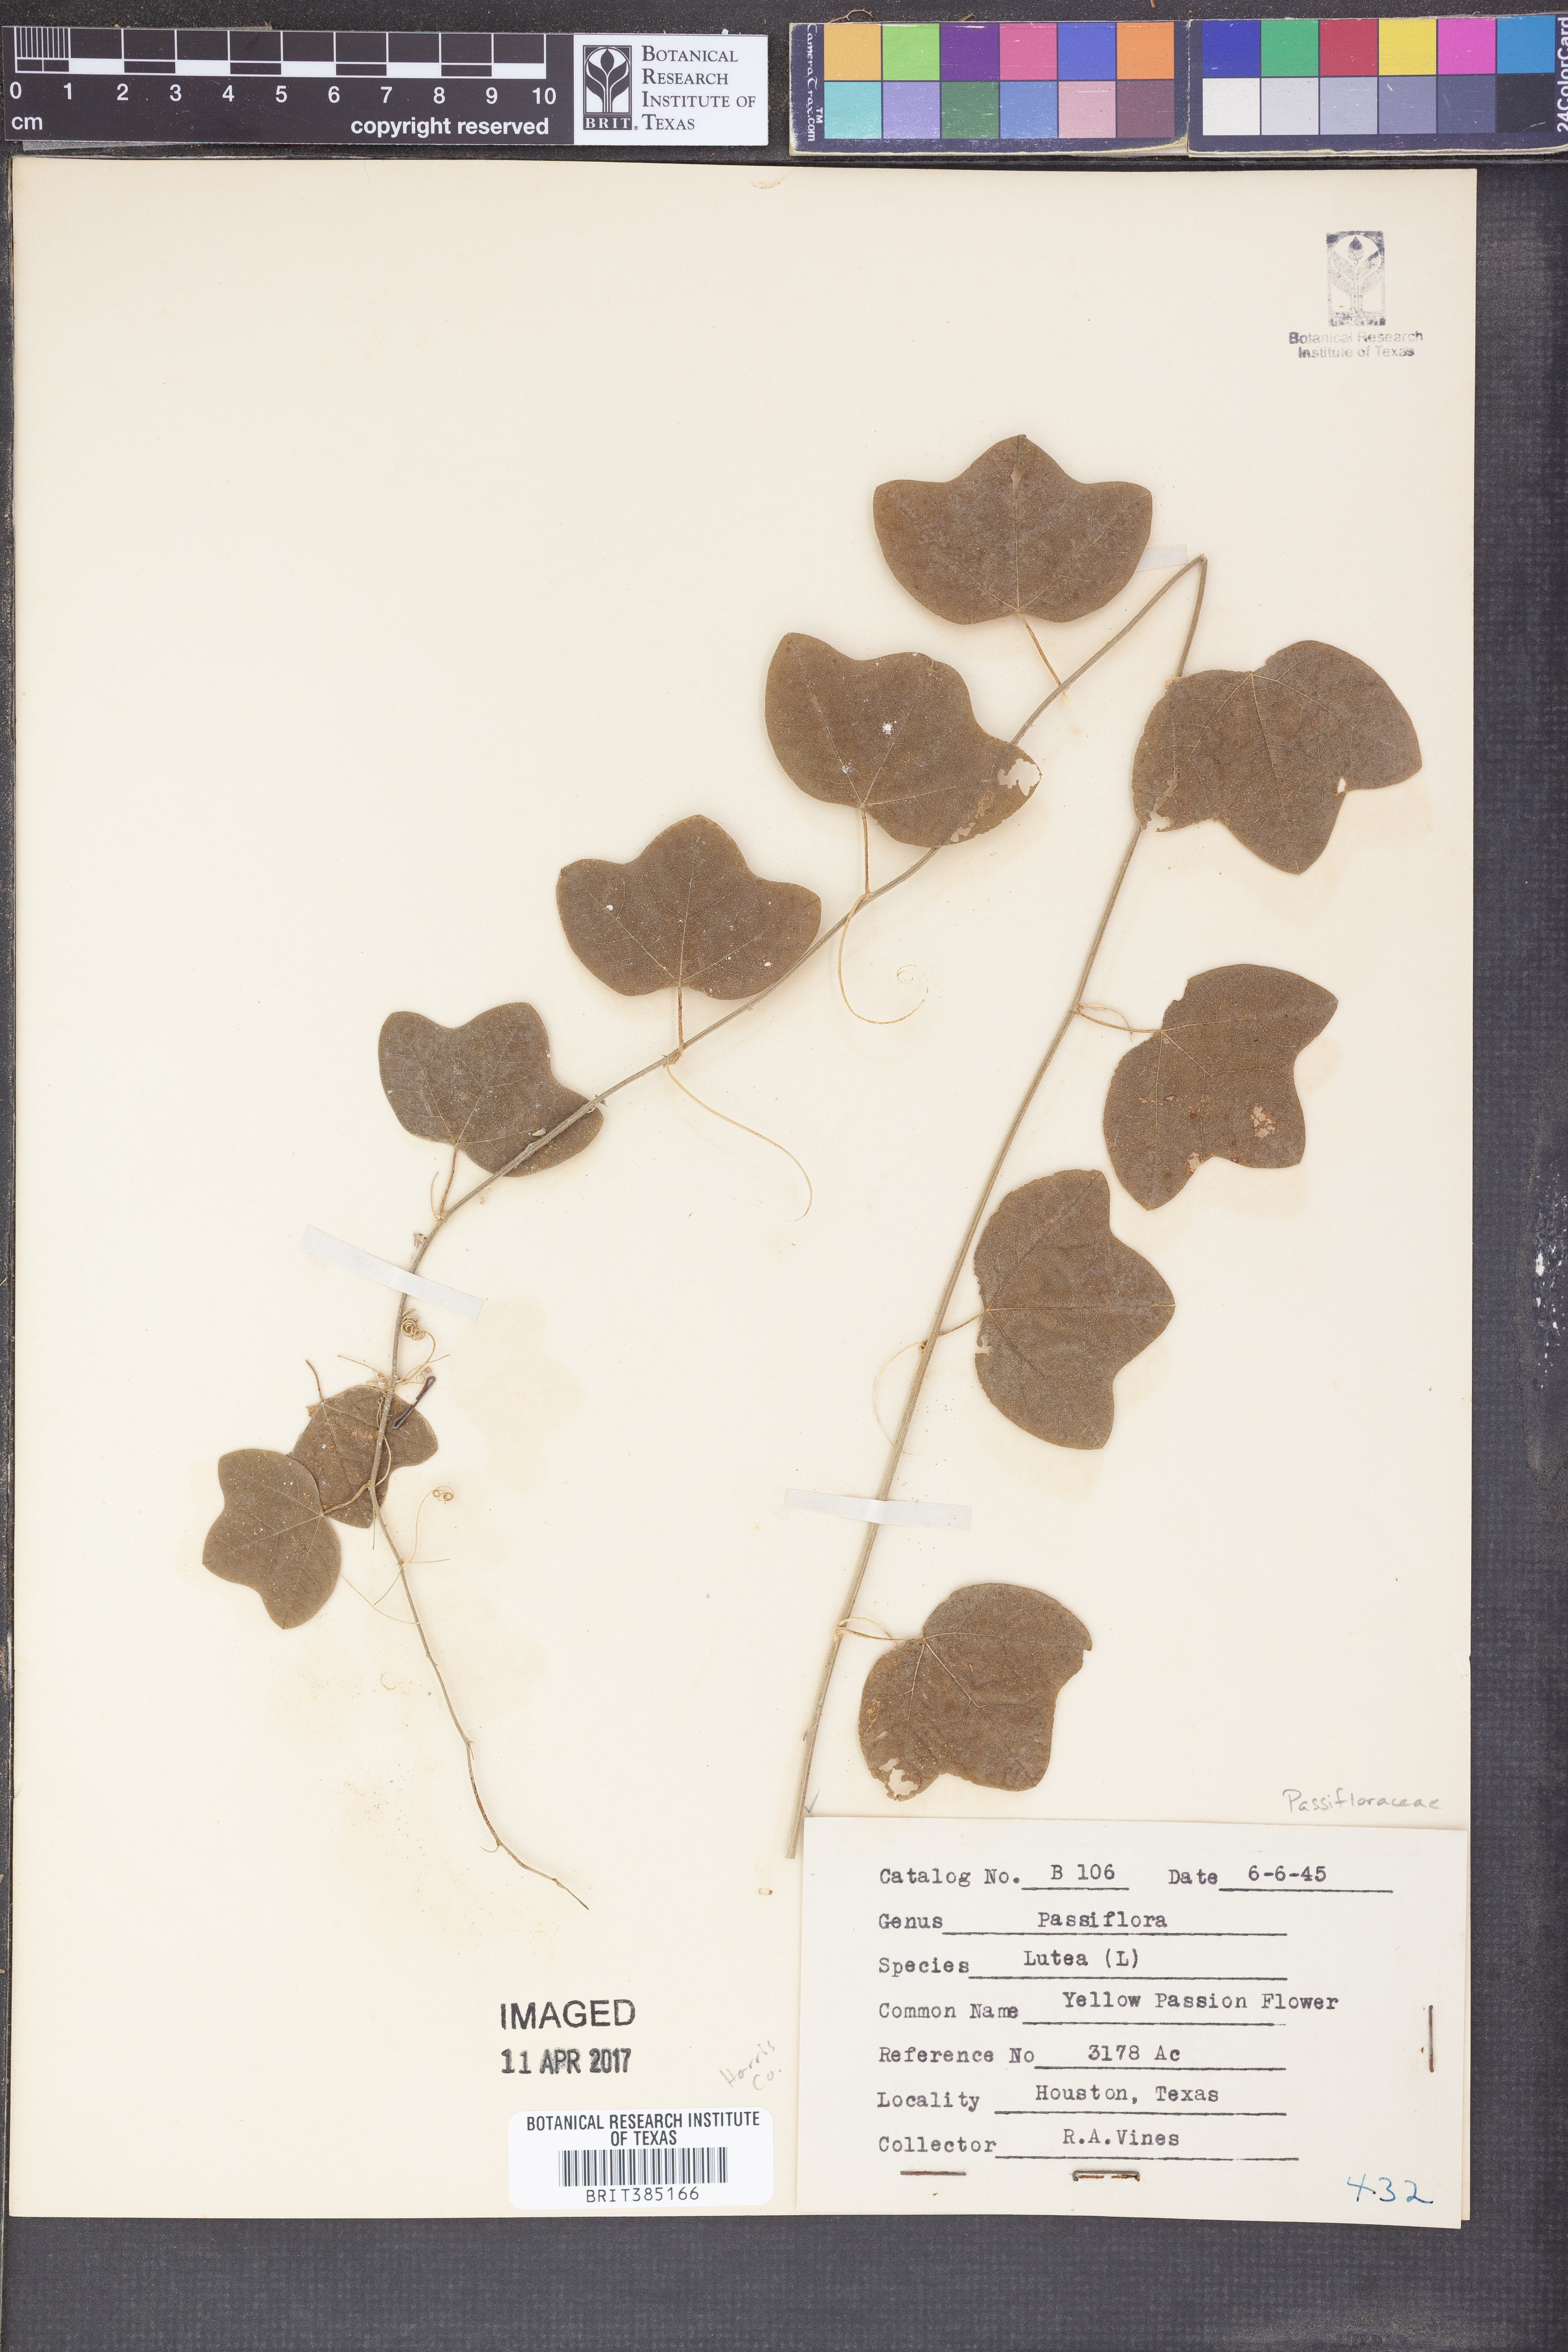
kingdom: Plantae
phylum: Tracheophyta
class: Magnoliopsida
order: Malpighiales
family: Passifloraceae
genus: Passiflora
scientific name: Passiflora lutea
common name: Yellow passionflower
